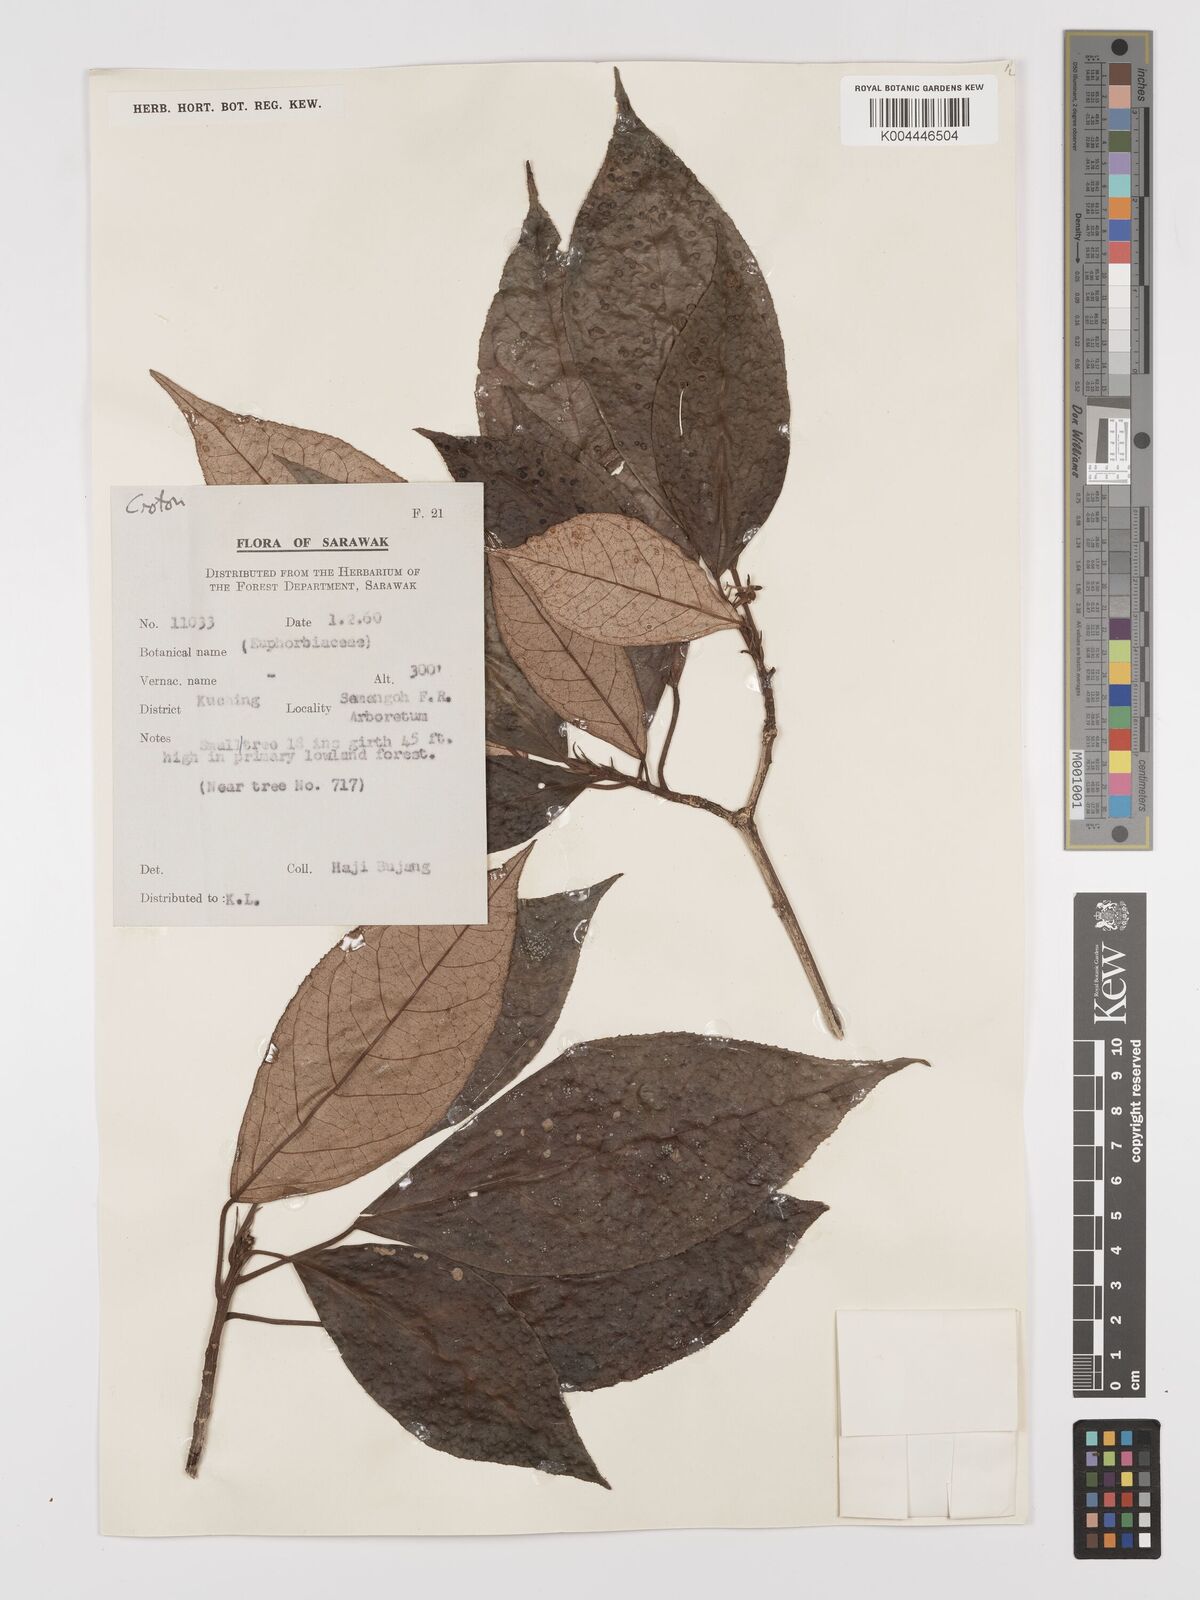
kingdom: Plantae
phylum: Tracheophyta
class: Magnoliopsida
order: Malpighiales
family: Euphorbiaceae
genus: Croton
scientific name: Croton argyratus
